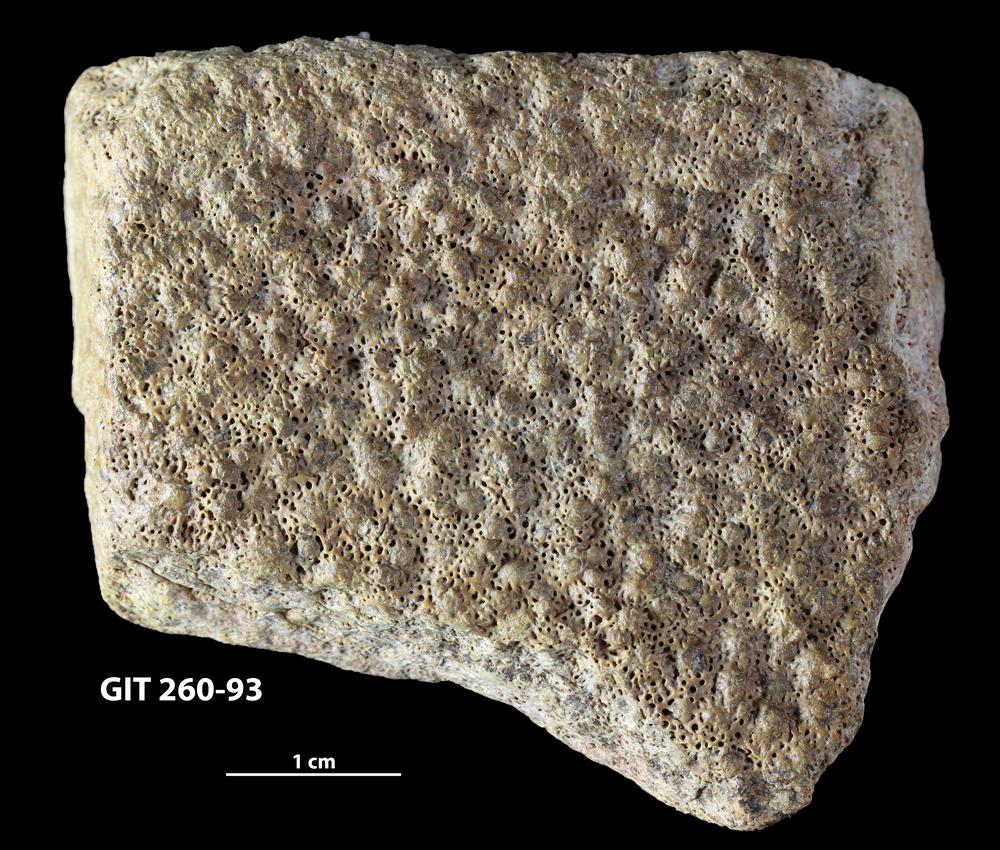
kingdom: Animalia
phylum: Chordata
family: Homostiidae
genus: Homostius
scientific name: Homostius
